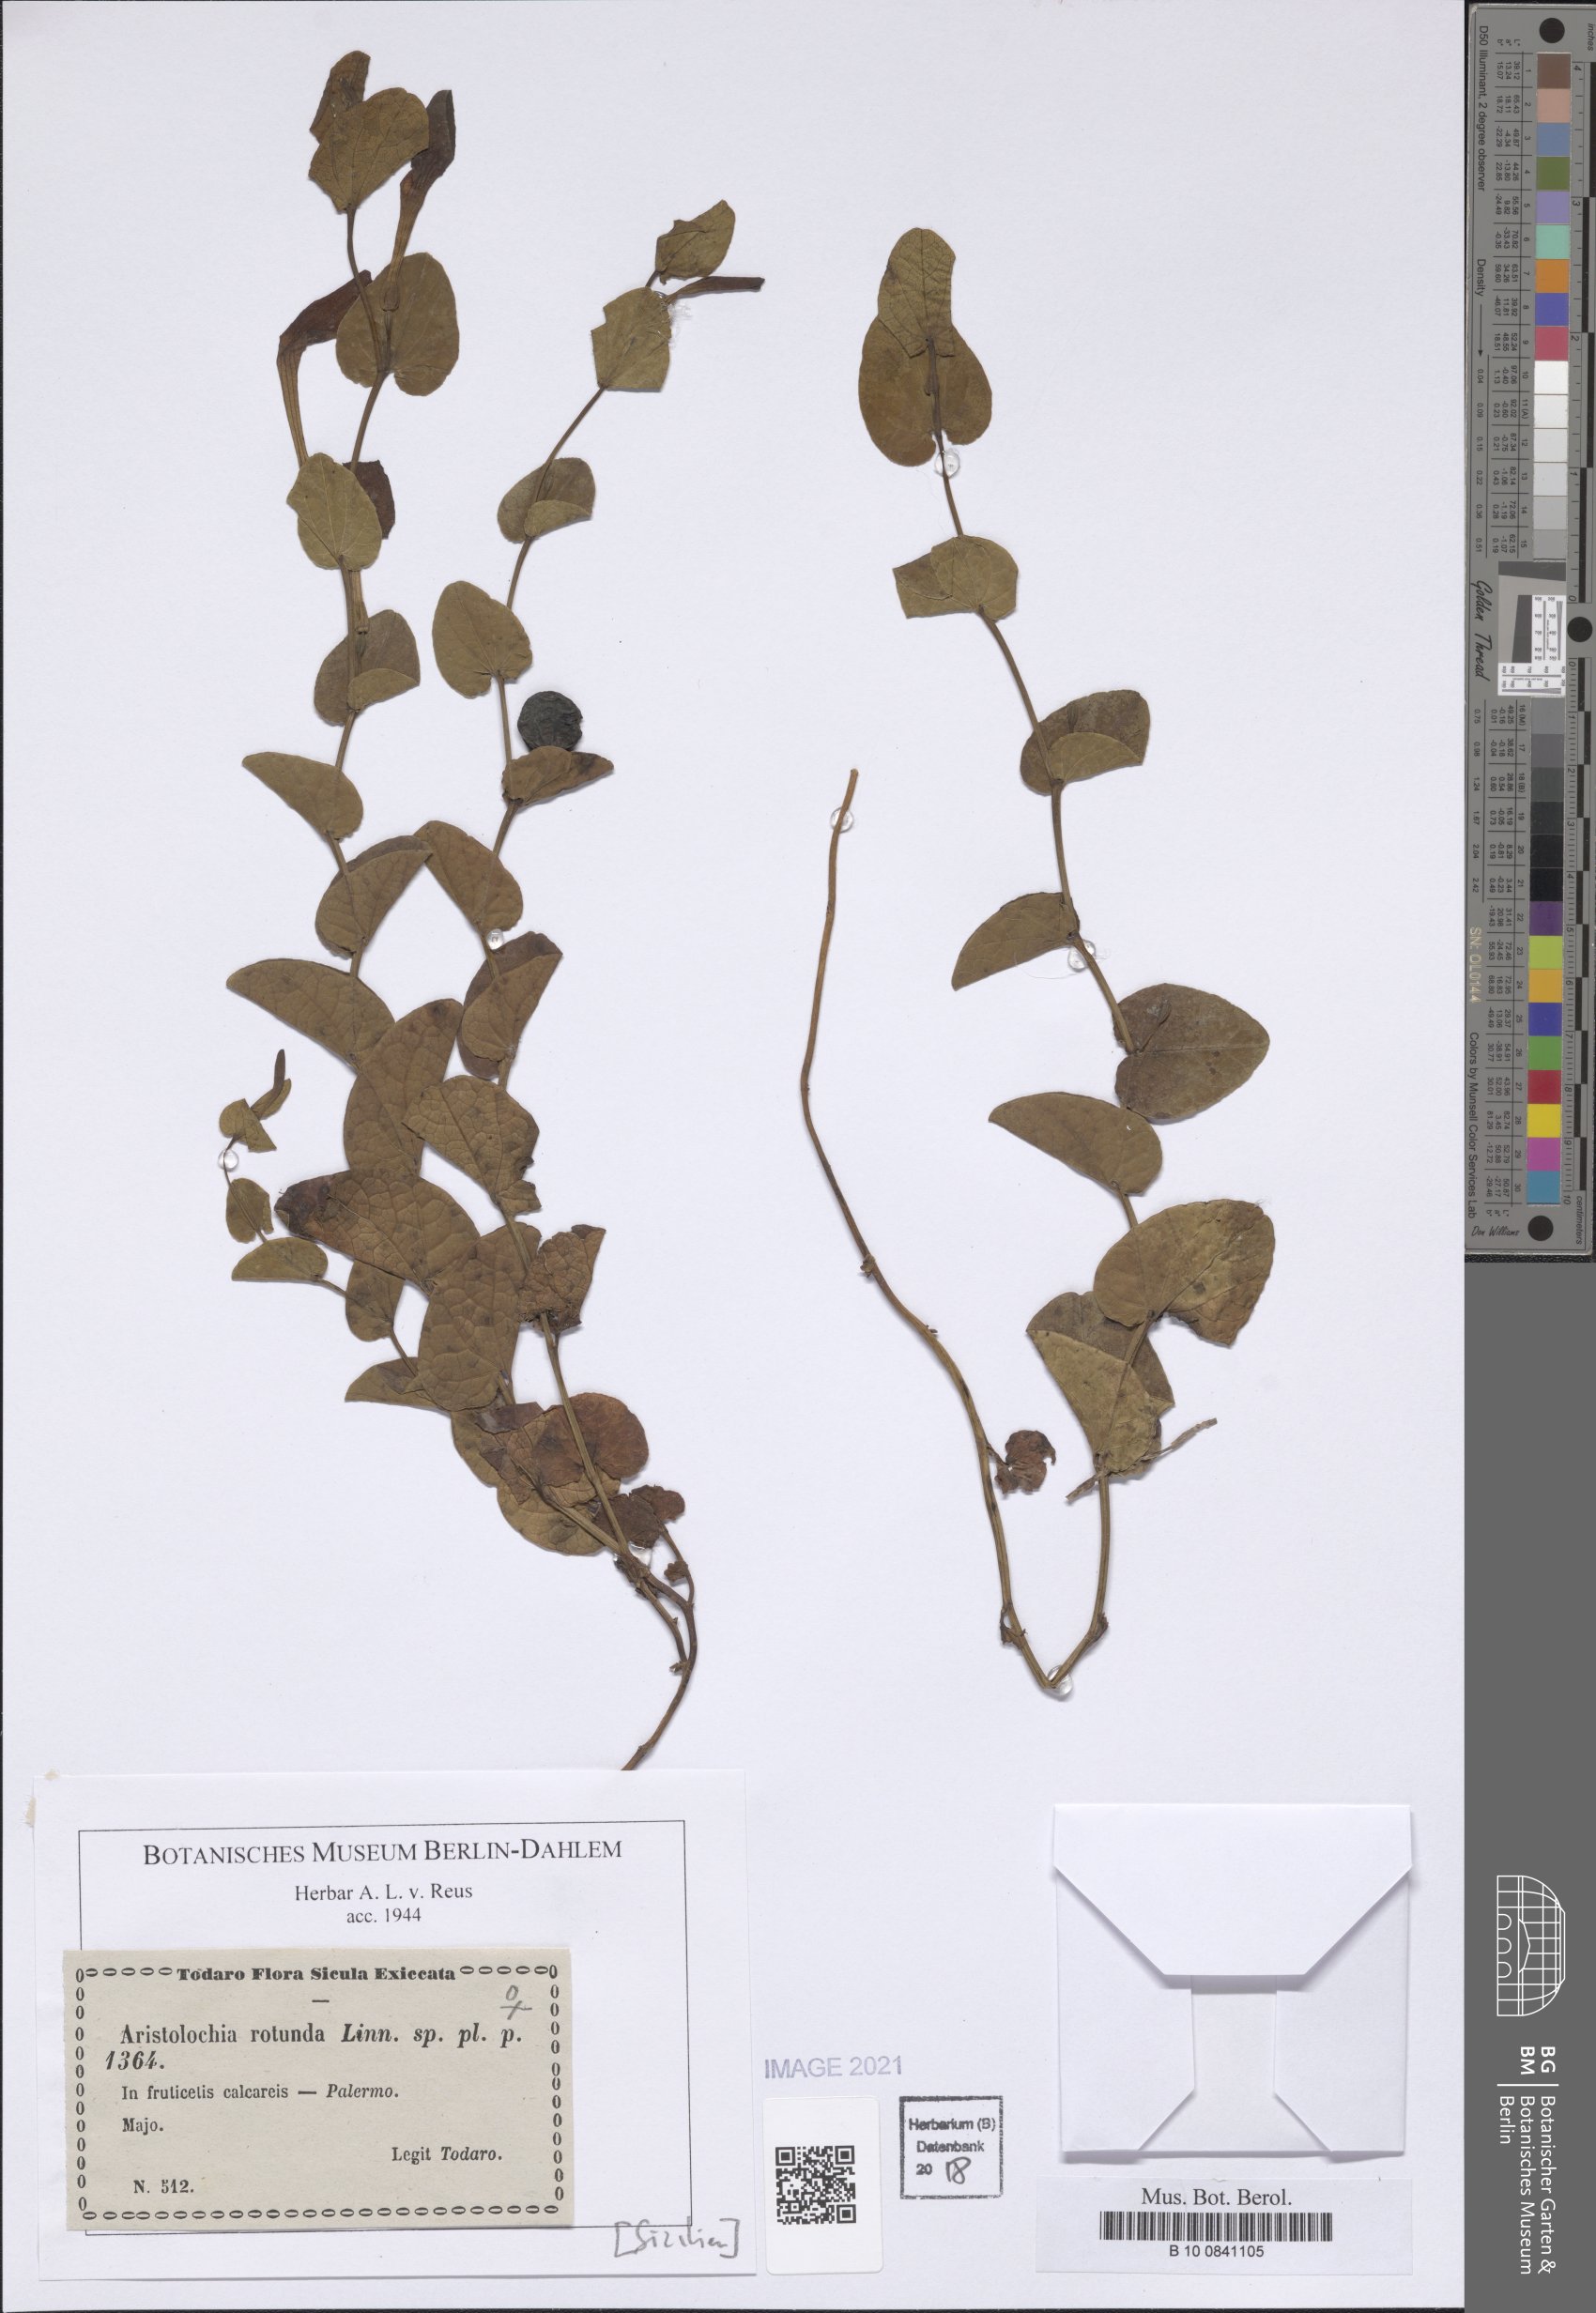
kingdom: Plantae
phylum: Tracheophyta
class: Magnoliopsida
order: Piperales
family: Aristolochiaceae
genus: Aristolochia
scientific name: Aristolochia rotunda
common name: Smearwort
